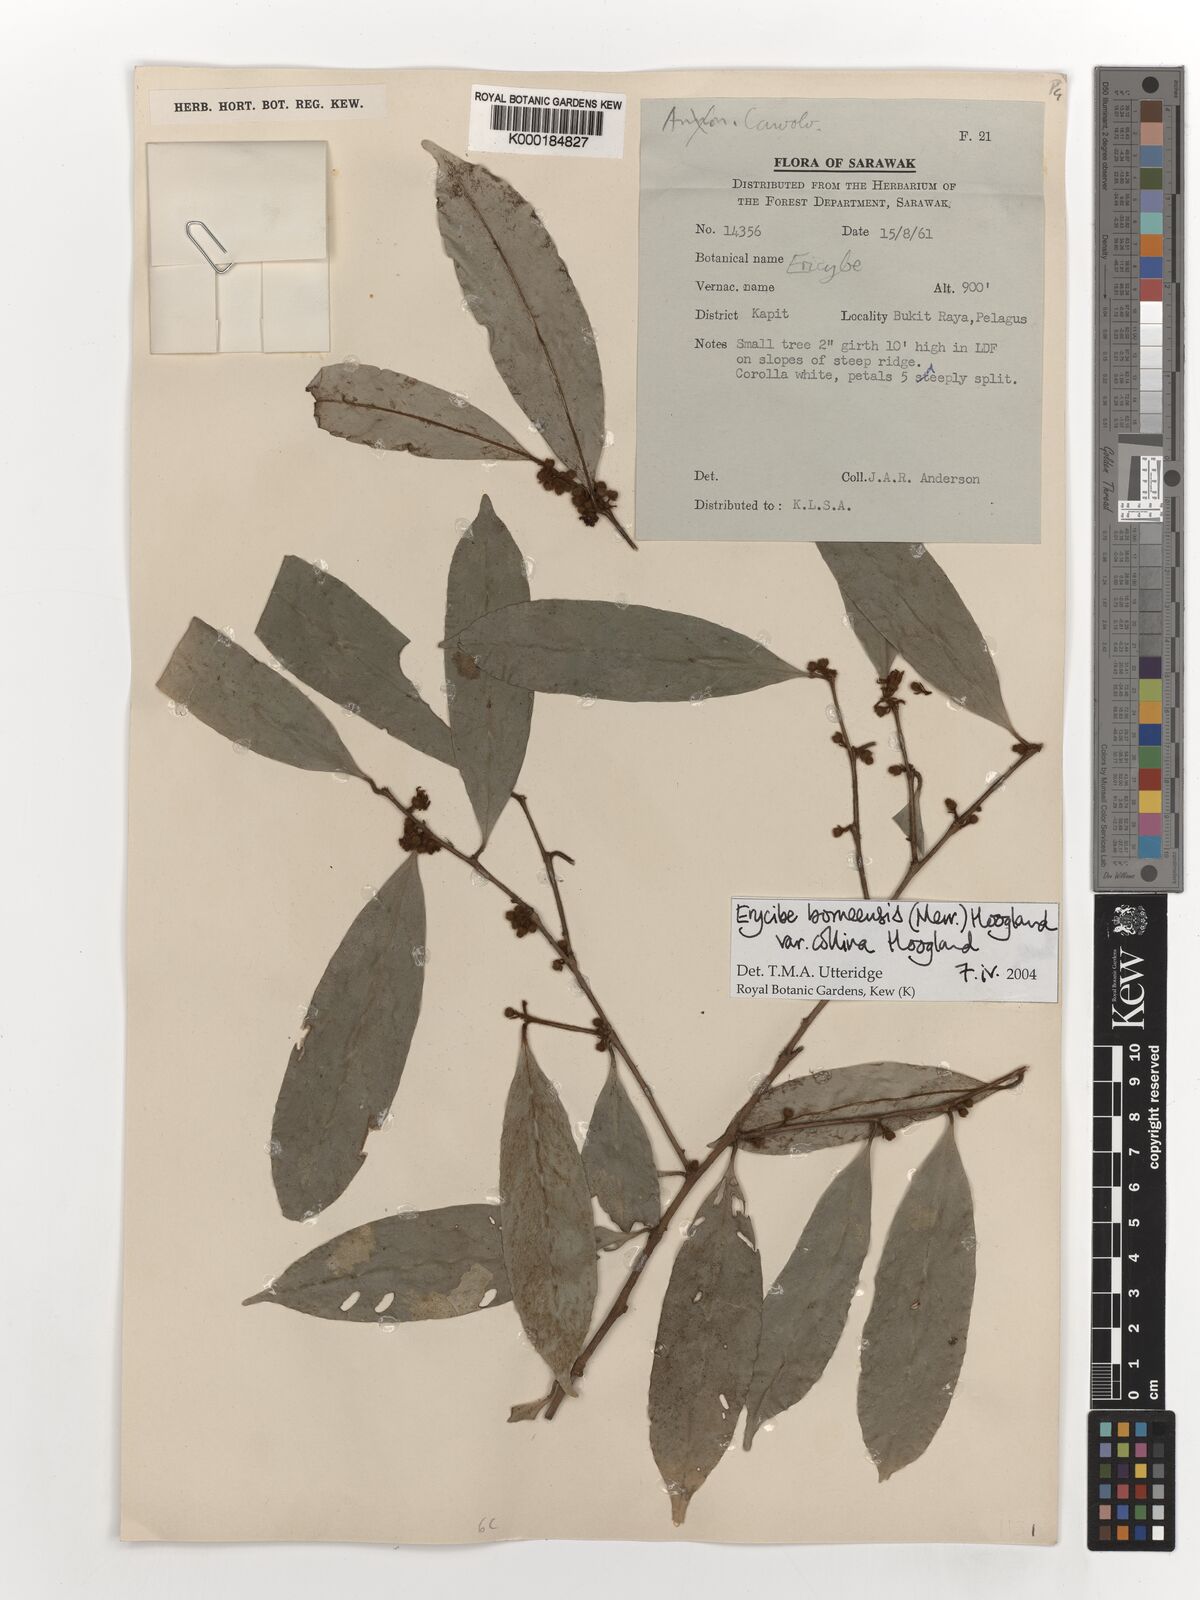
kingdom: Plantae
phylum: Tracheophyta
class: Magnoliopsida
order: Solanales
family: Convolvulaceae
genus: Erycibe
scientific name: Erycibe borneensis
